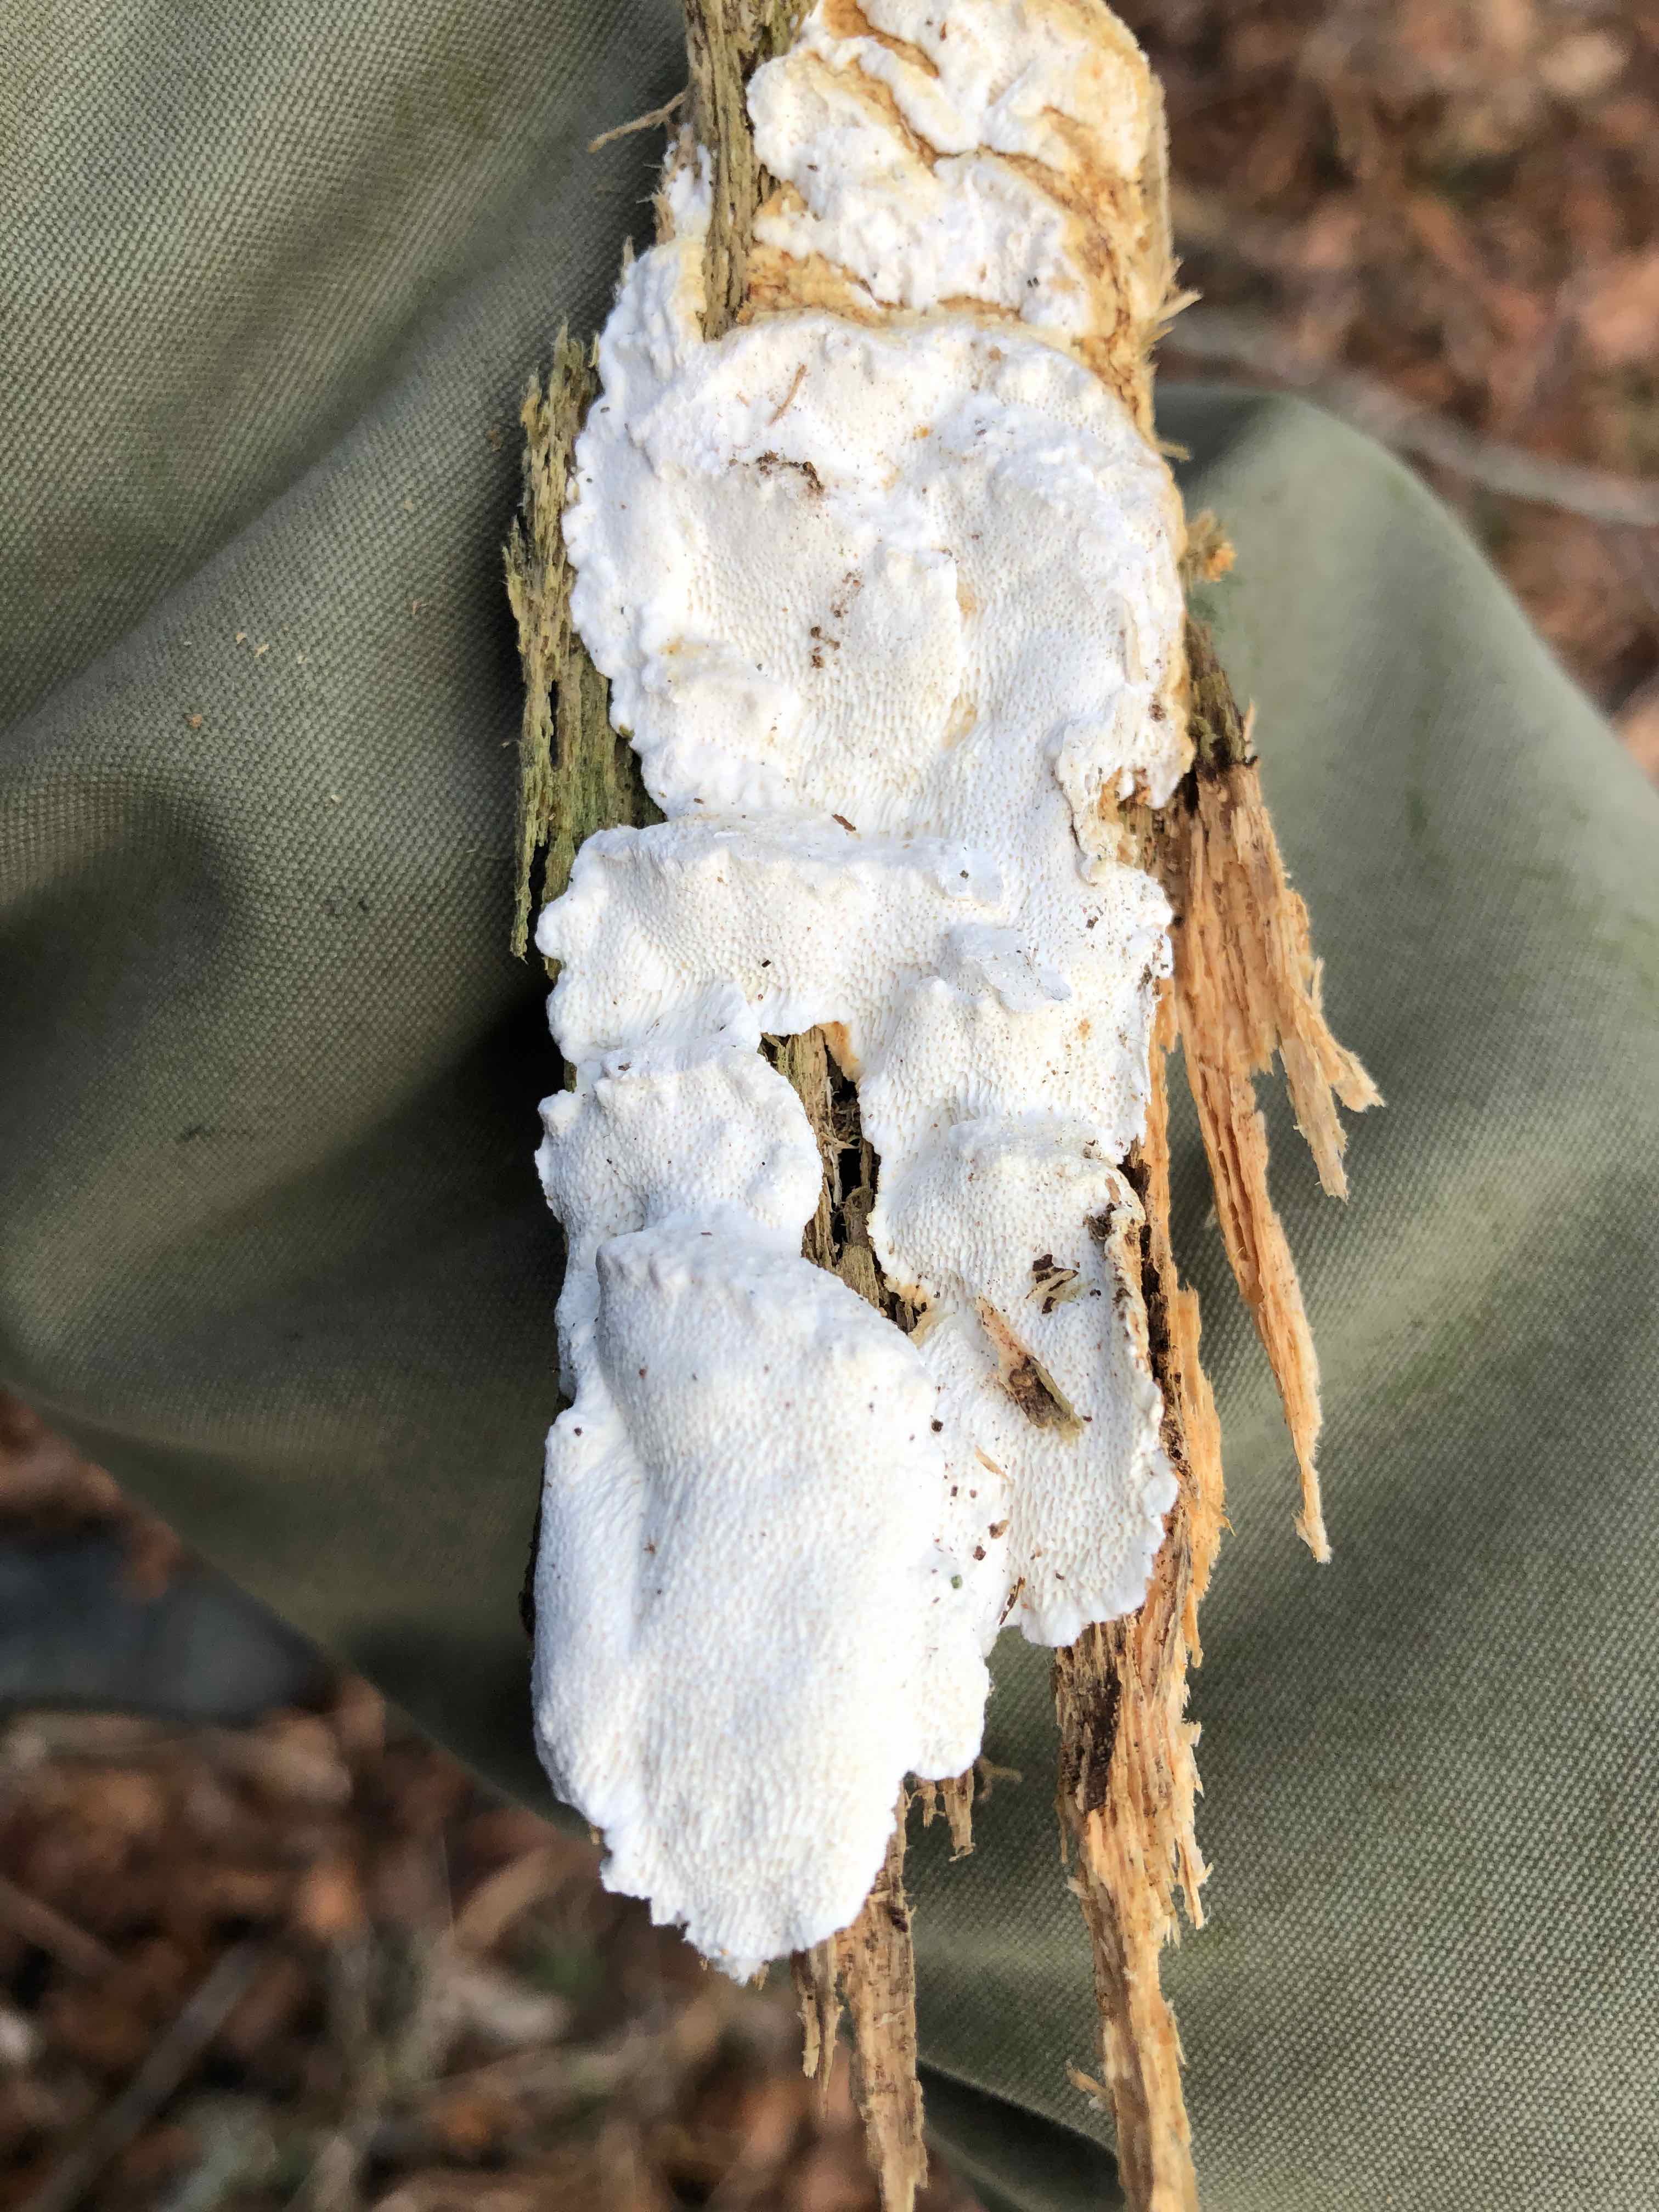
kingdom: Fungi
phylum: Basidiomycota
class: Agaricomycetes
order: Polyporales
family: Fomitopsidaceae
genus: Neoantrodia
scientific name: Neoantrodia serialis
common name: række-sejporesvamp
